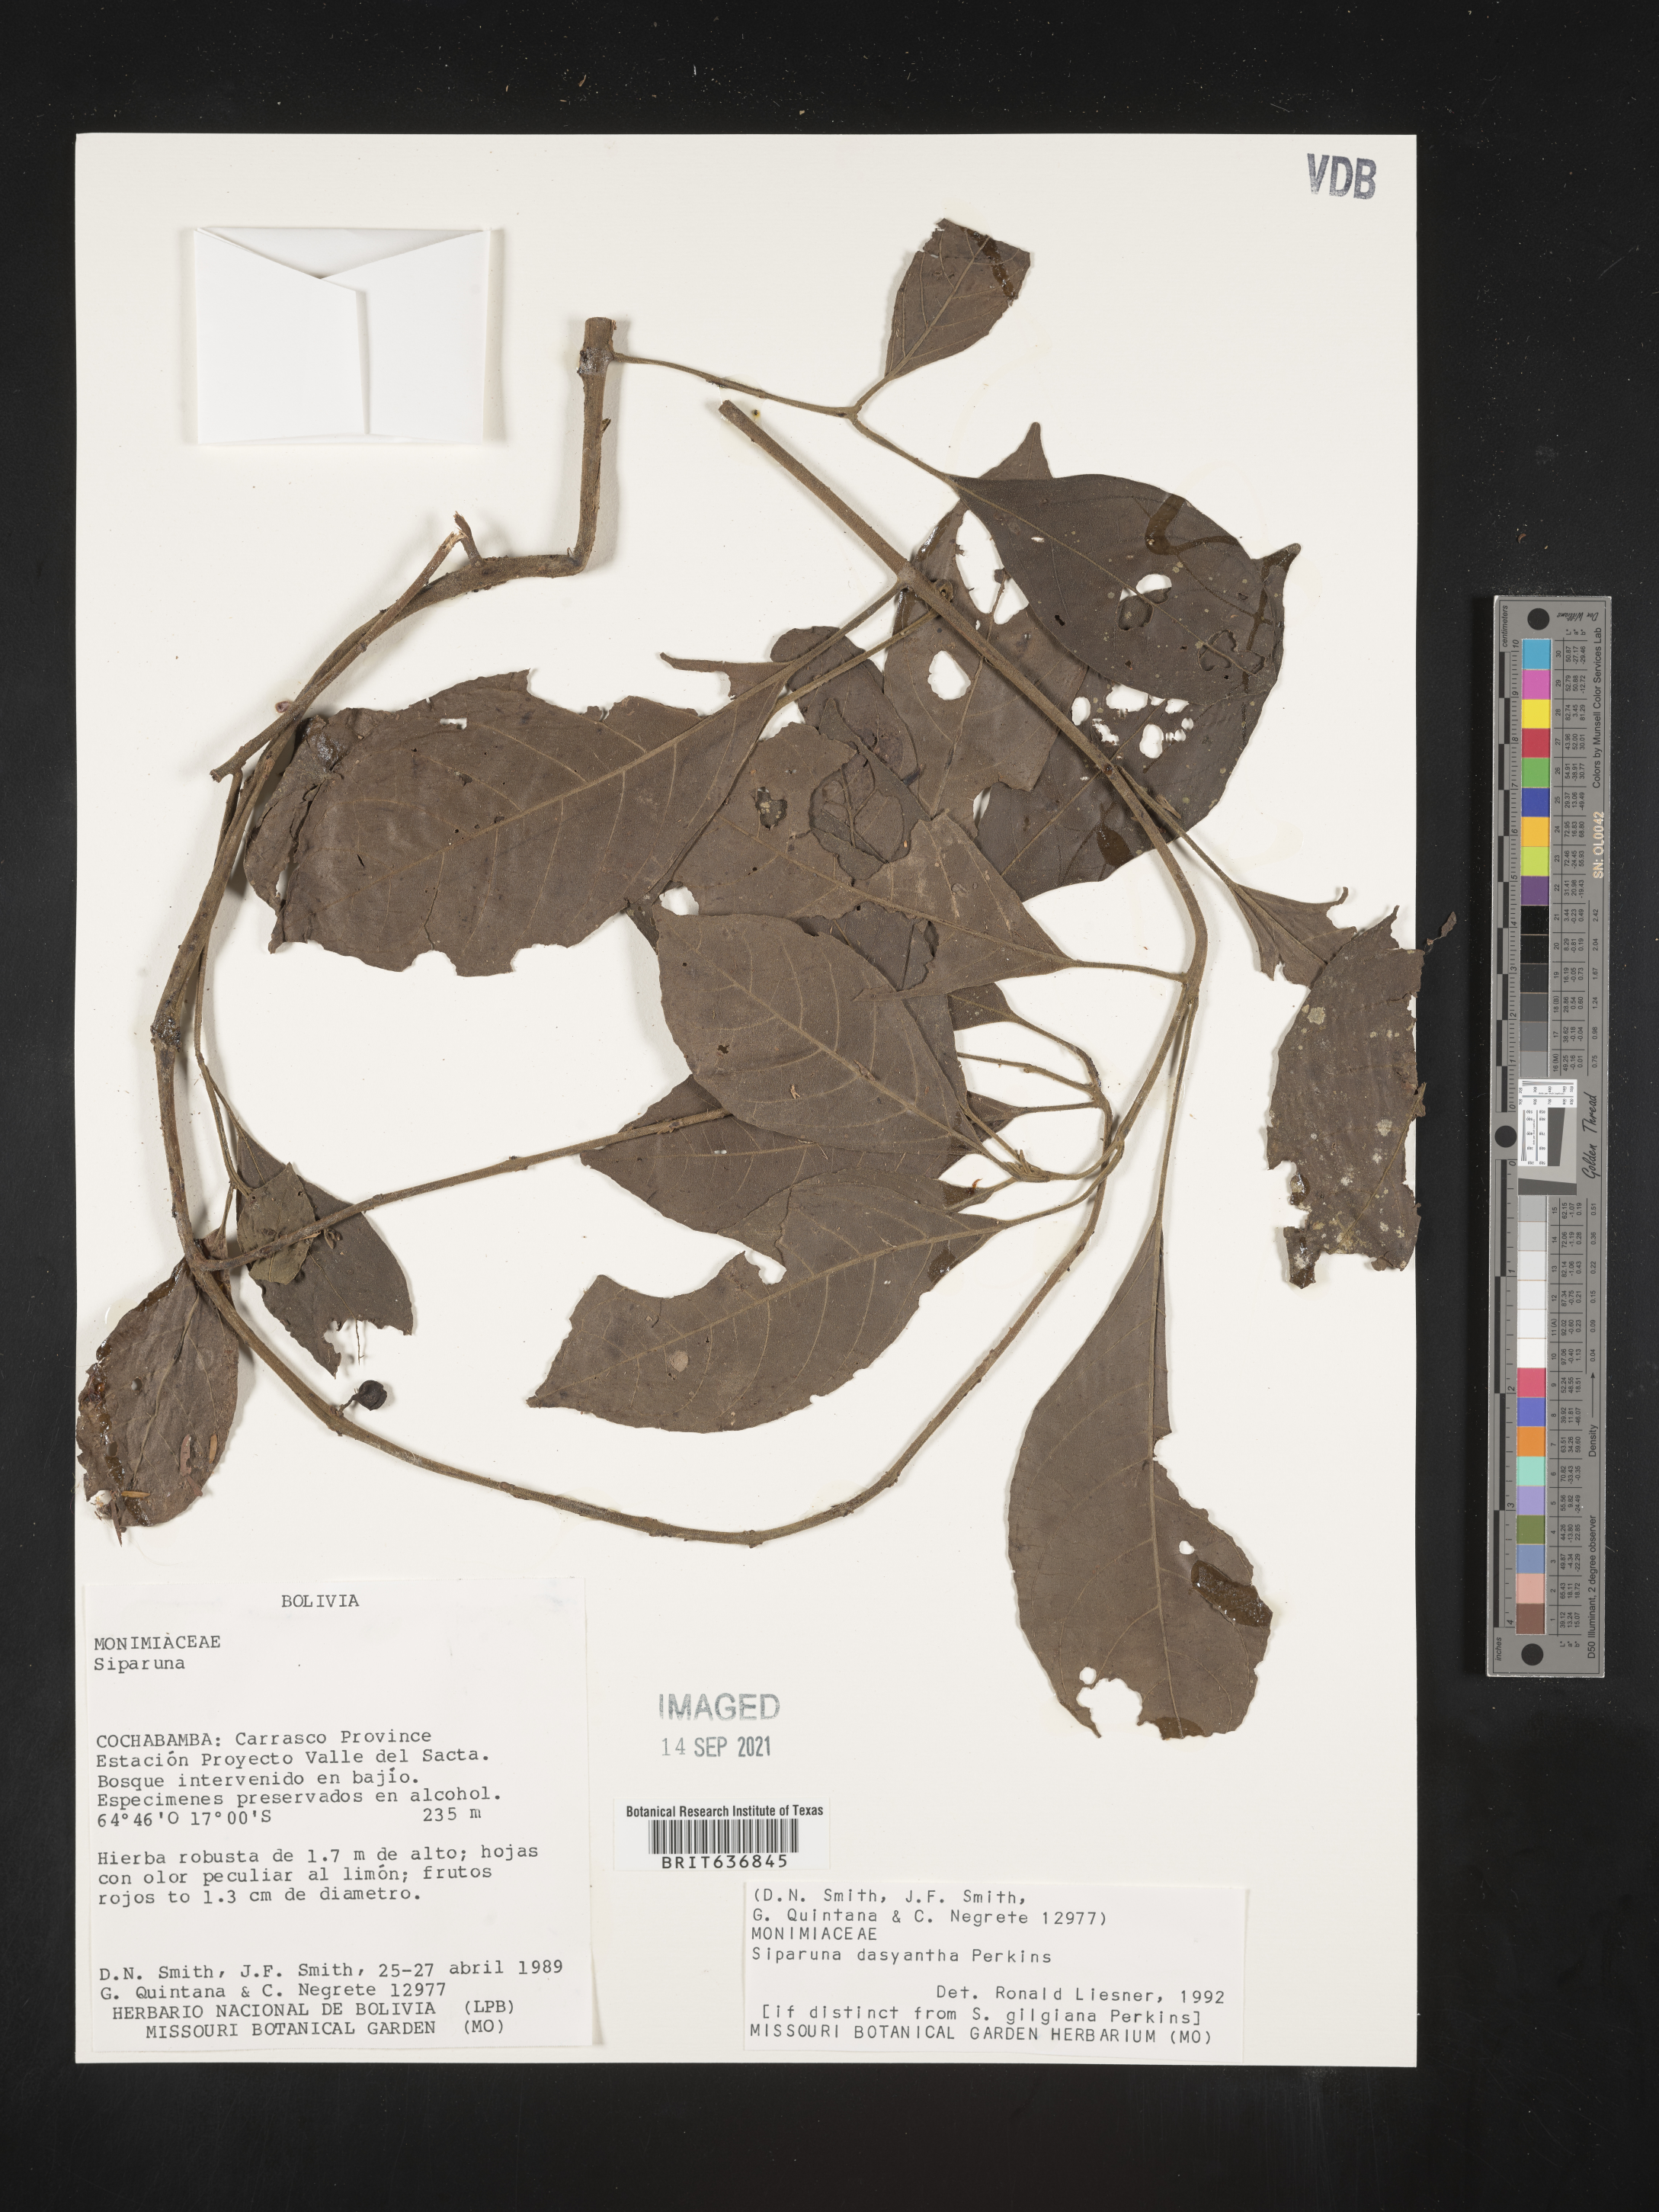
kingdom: Plantae
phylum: Tracheophyta
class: Magnoliopsida
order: Laurales
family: Siparunaceae
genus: Siparuna
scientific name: Siparuna
